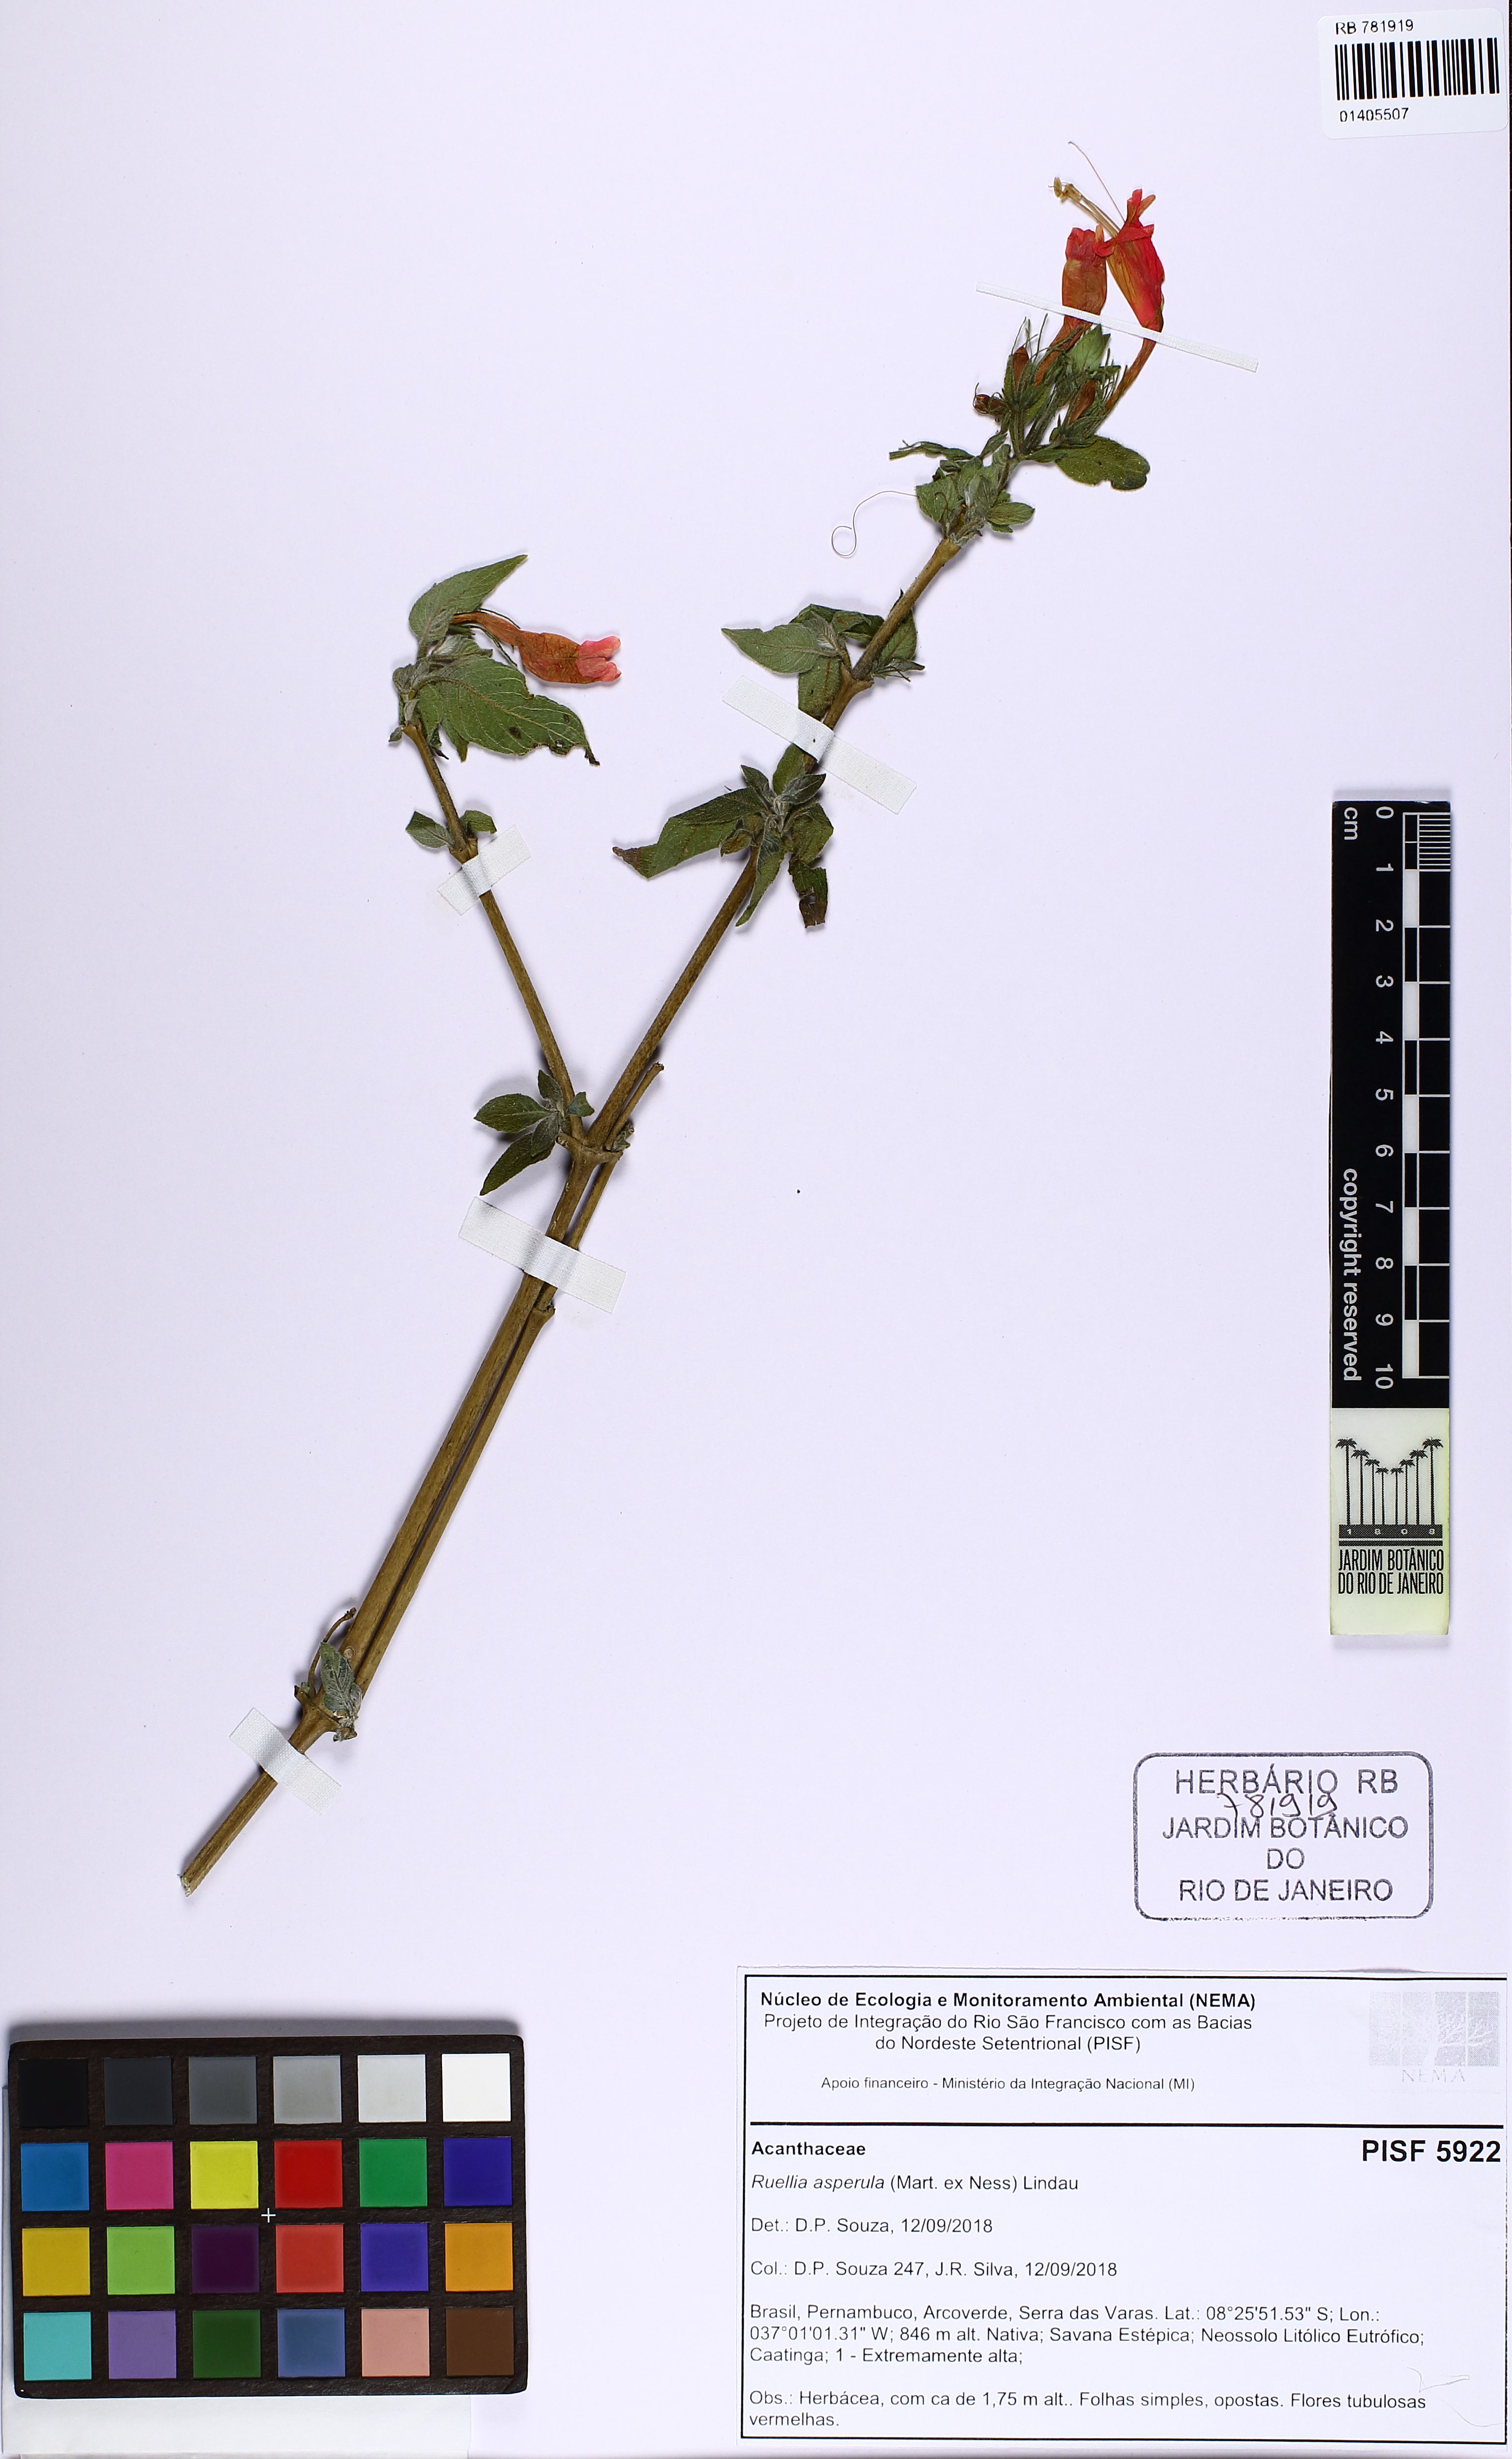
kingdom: Plantae
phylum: Tracheophyta
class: Magnoliopsida
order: Lamiales
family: Acanthaceae
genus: Ruellia
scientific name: Ruellia asperula
